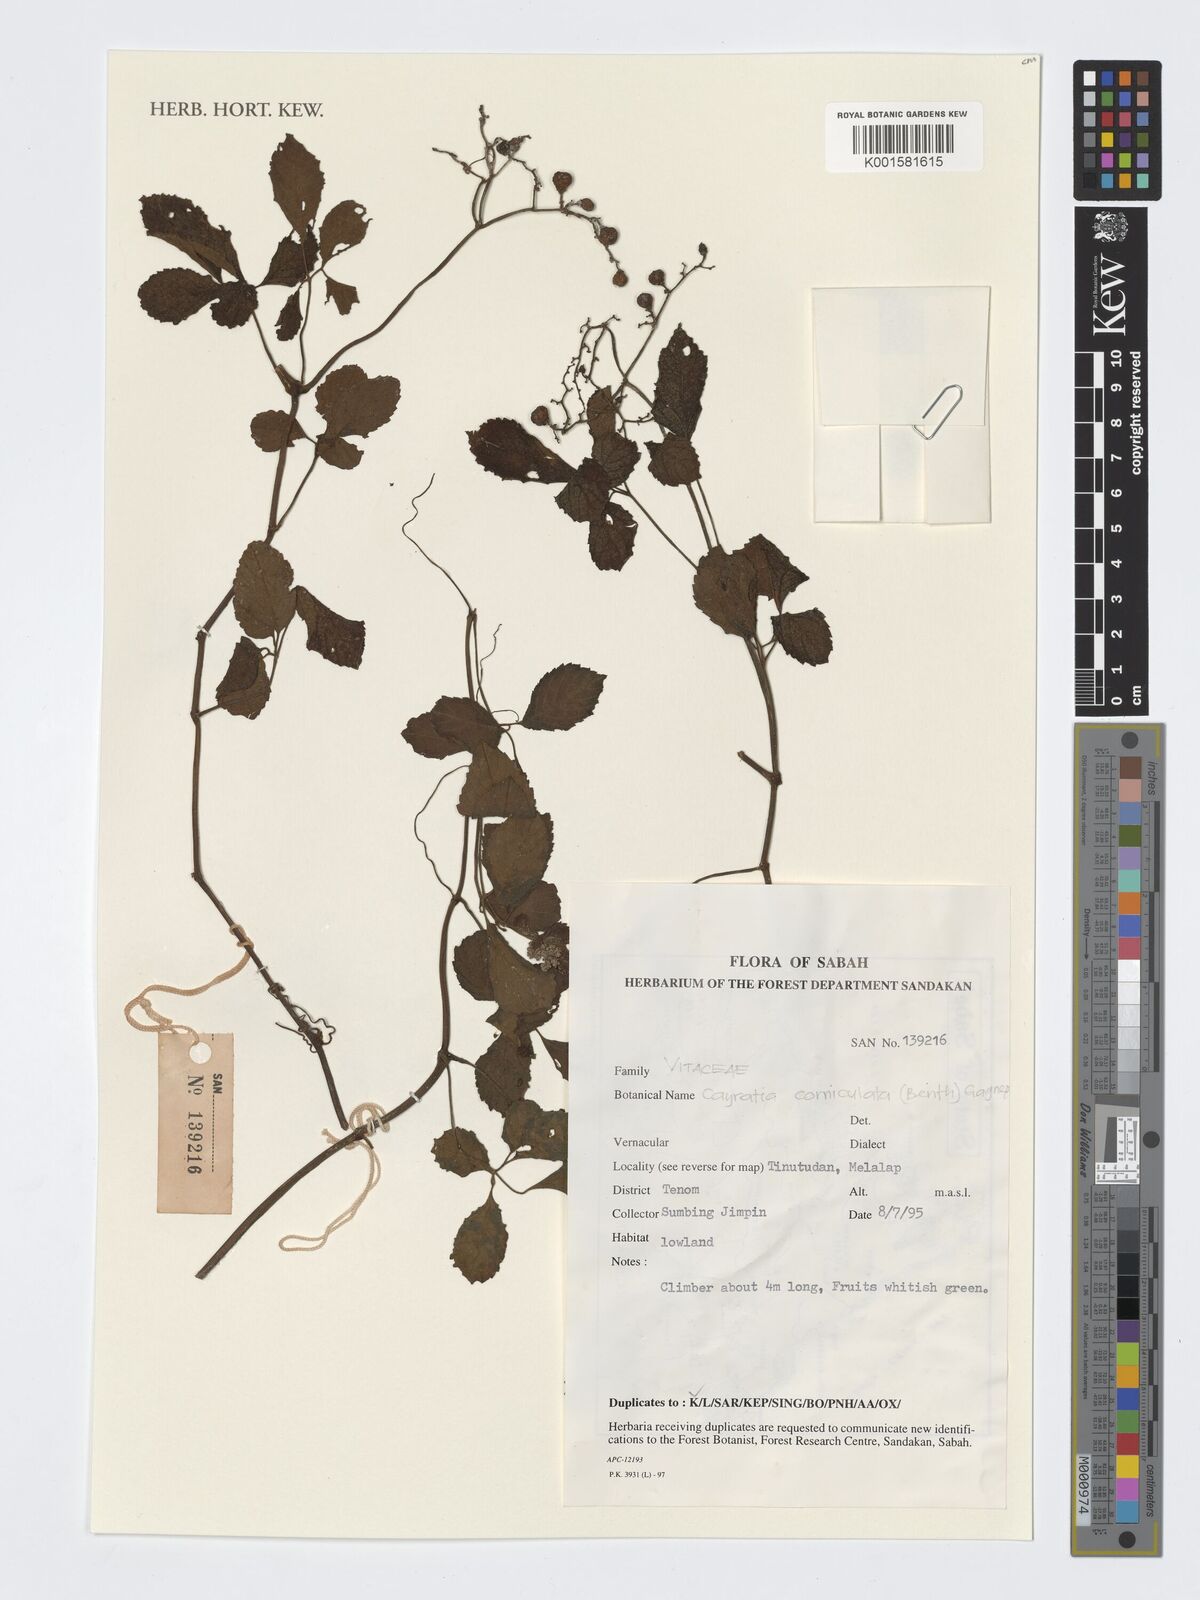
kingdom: Plantae
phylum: Tracheophyta
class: Magnoliopsida
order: Vitales
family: Vitaceae
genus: Causonis
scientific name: Causonis corniculata
